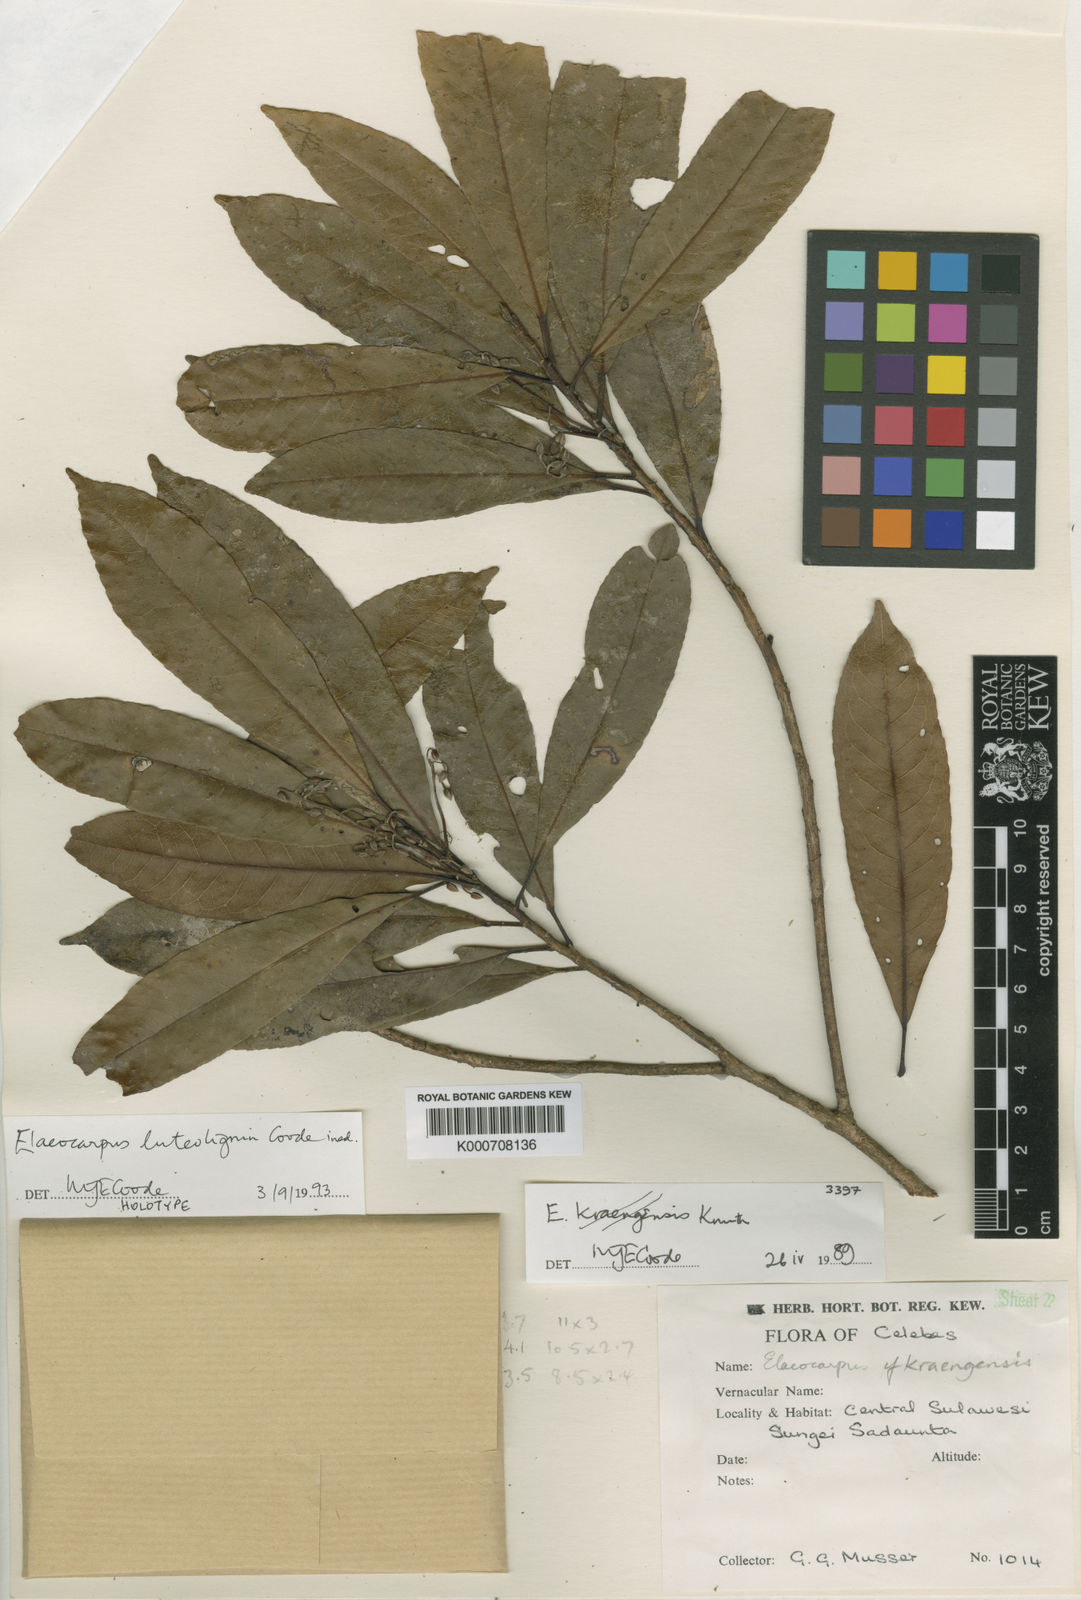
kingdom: Plantae
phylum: Tracheophyta
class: Magnoliopsida
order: Oxalidales
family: Elaeocarpaceae
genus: Elaeocarpus
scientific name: Elaeocarpus luteolignum
